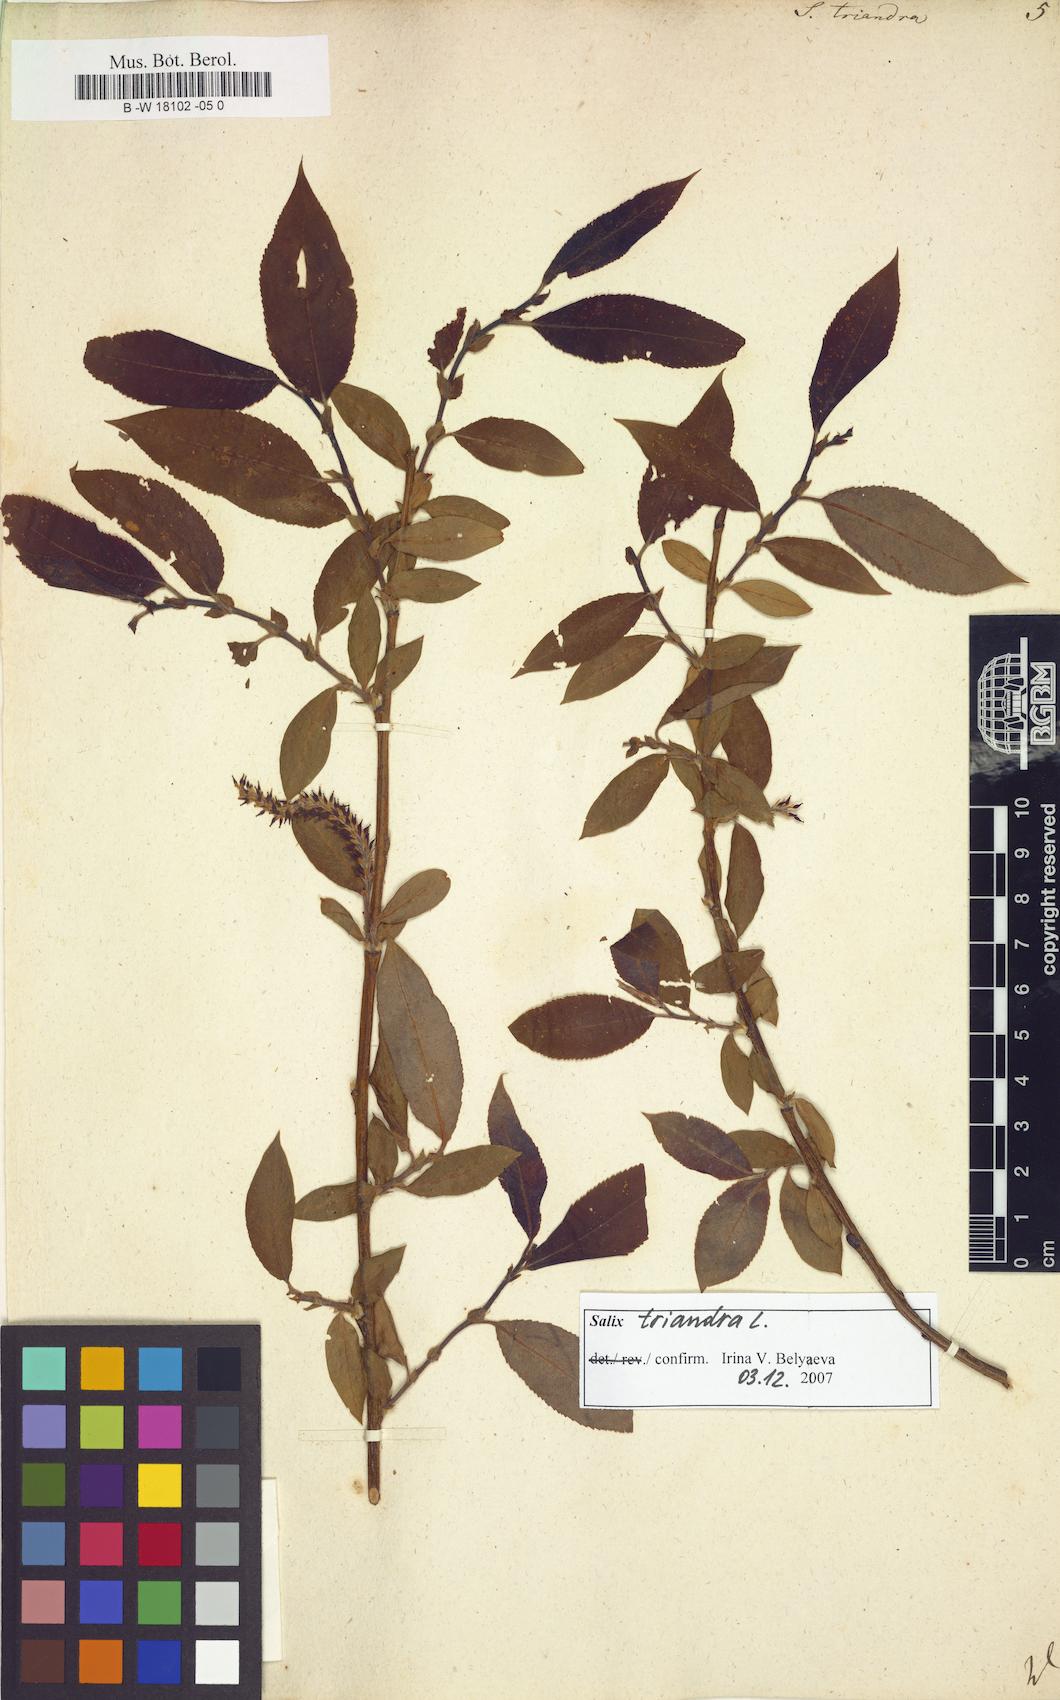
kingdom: Plantae
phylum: Tracheophyta
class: Magnoliopsida
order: Malpighiales
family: Salicaceae
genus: Salix
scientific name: Salix triandra
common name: Almond willow
